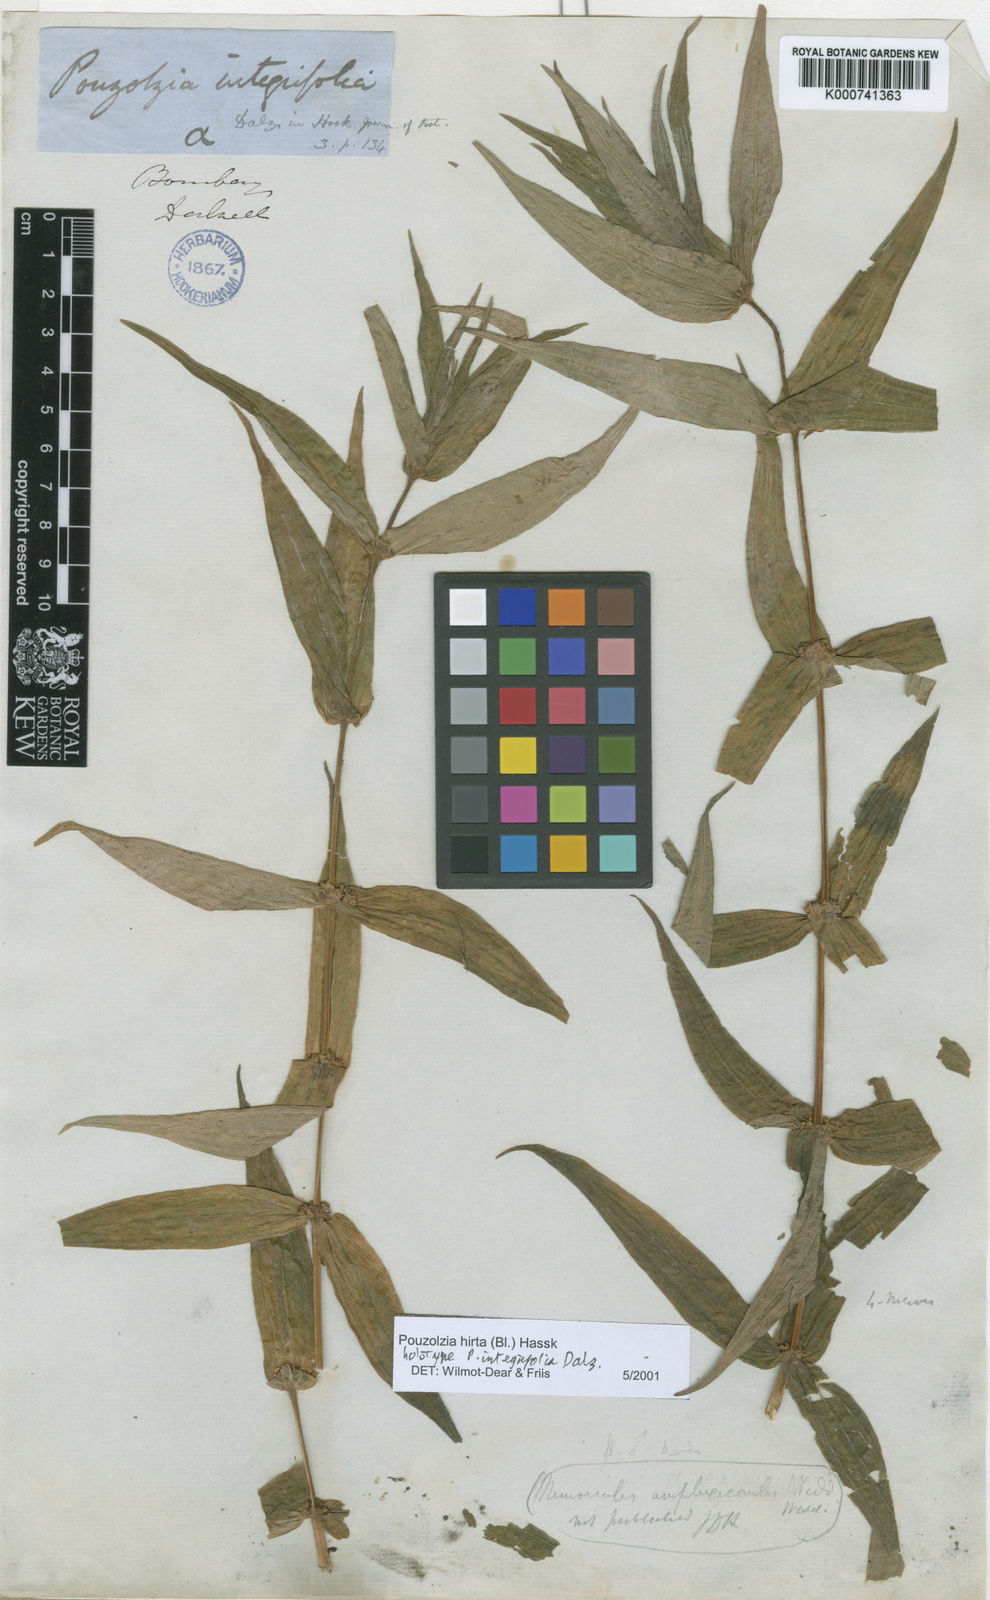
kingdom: Plantae
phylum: Tracheophyta
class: Magnoliopsida
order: Rosales
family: Urticaceae
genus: Gonostegia
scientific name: Gonostegia triandra
